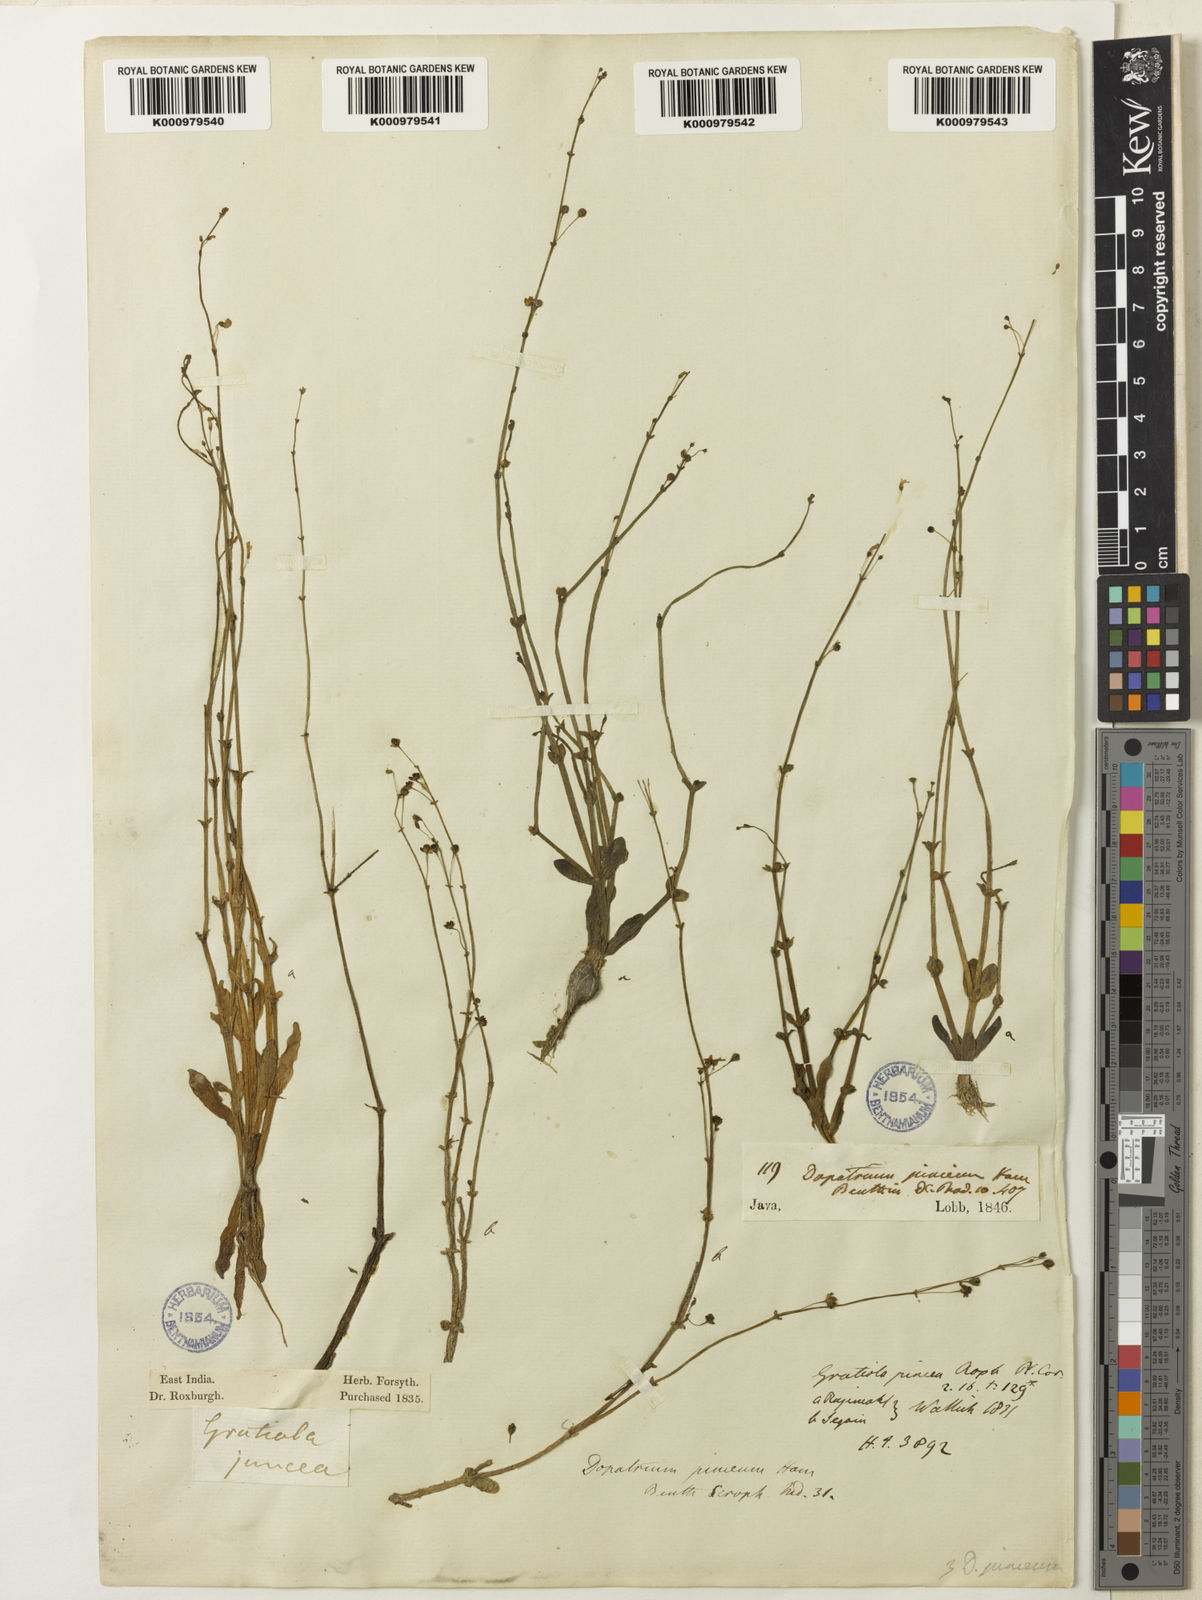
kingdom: Plantae
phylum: Tracheophyta
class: Magnoliopsida
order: Lamiales
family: Plantaginaceae
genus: Dopatrium
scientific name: Dopatrium junceum
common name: Horsefly's eye
